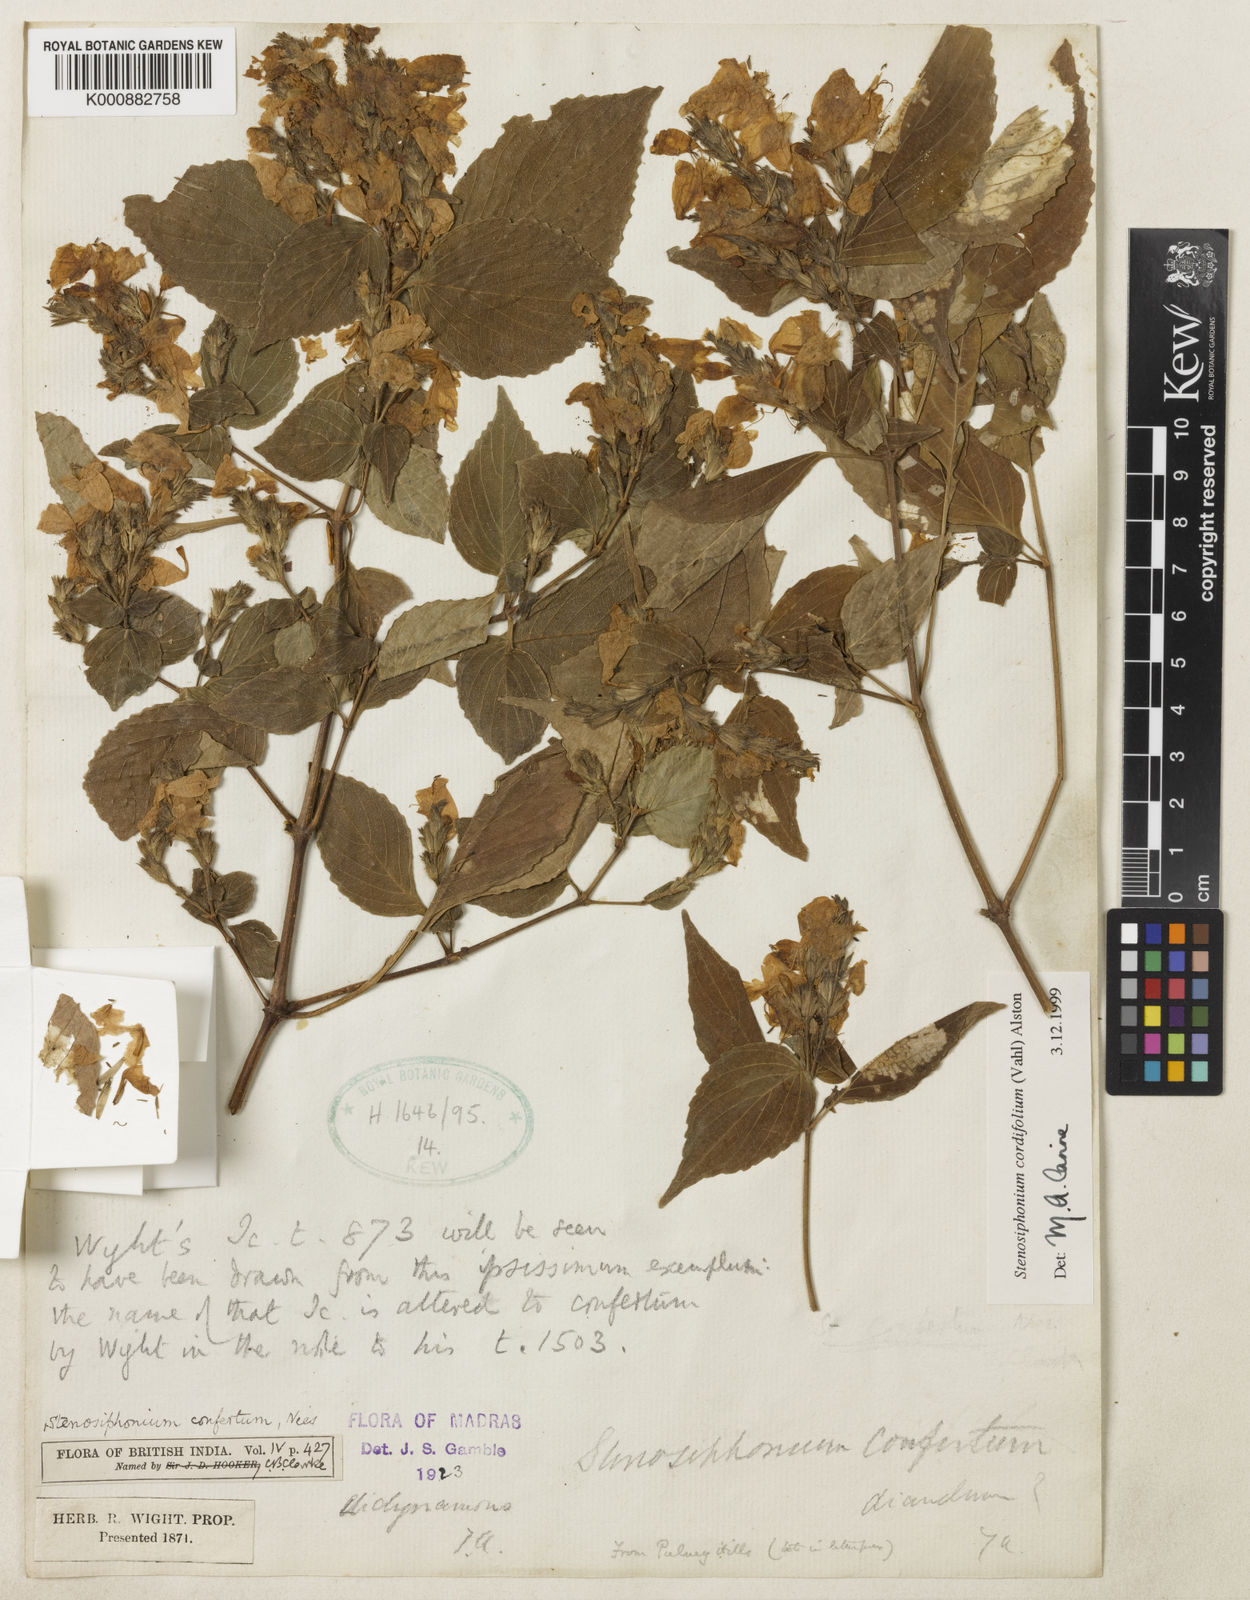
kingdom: Plantae
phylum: Tracheophyta
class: Magnoliopsida
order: Lamiales
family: Acanthaceae
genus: Strobilanthes
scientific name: Strobilanthes cordifolia
